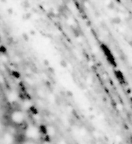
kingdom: Animalia
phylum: Chordata
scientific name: Chordata
